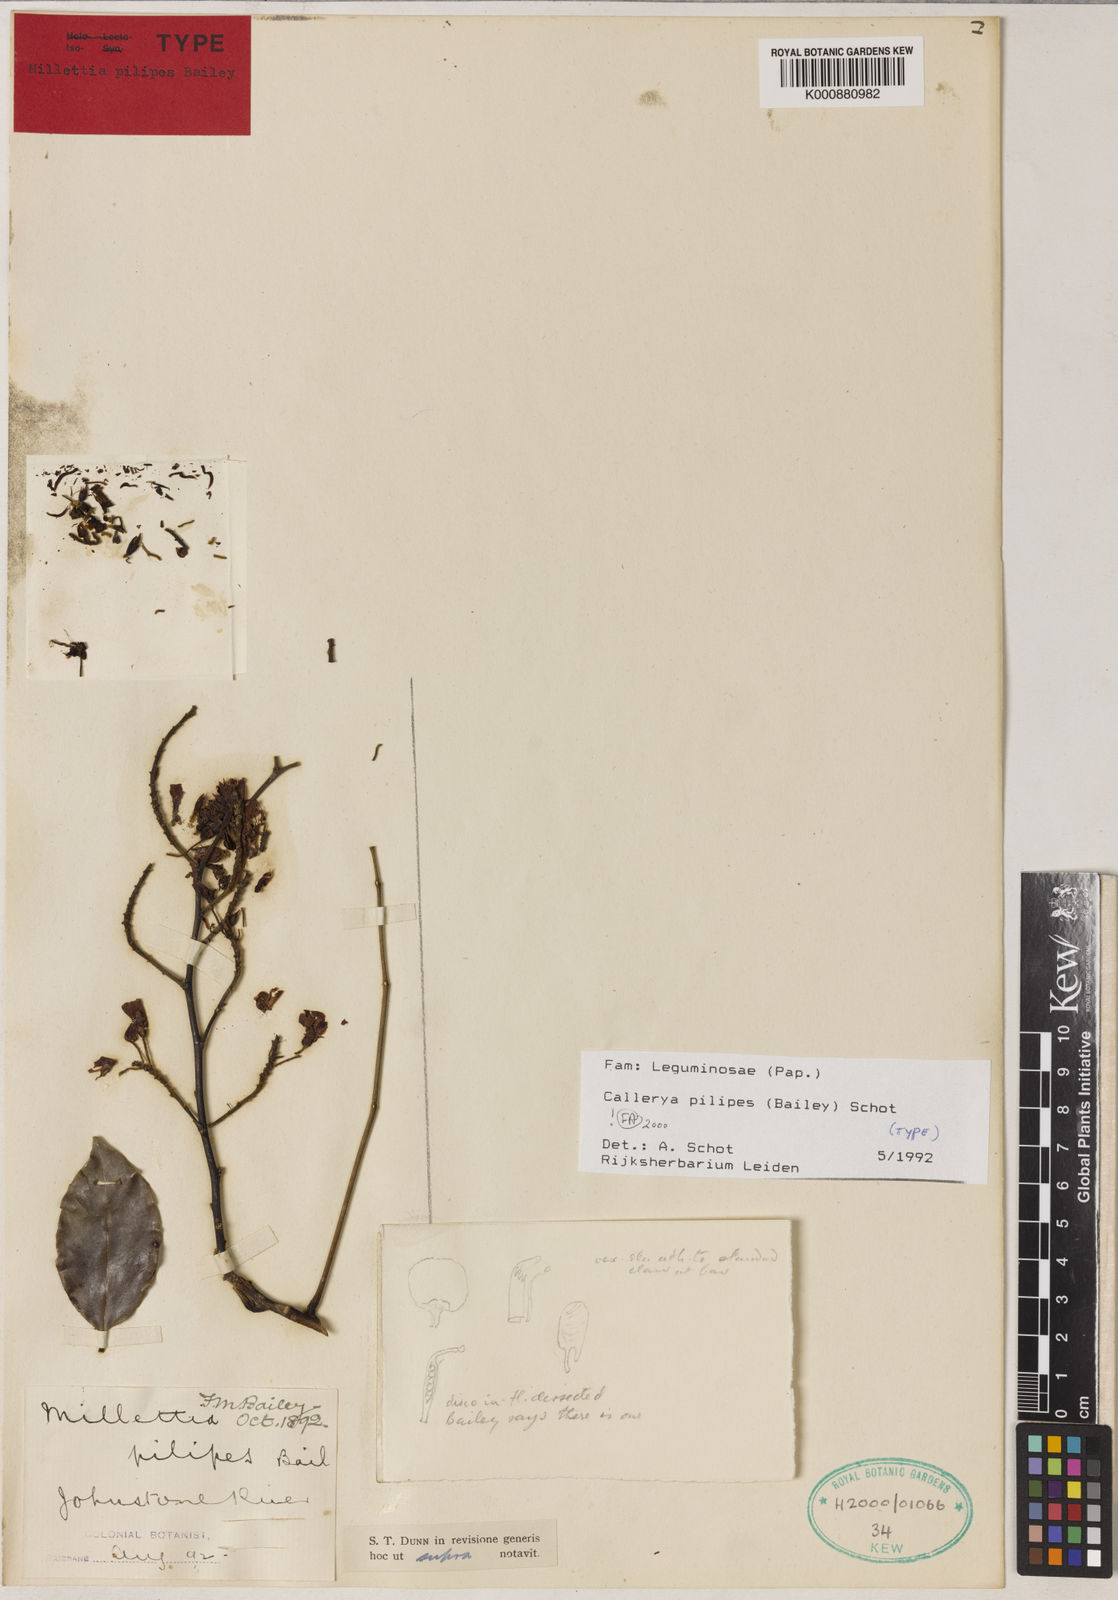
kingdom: Plantae
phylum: Tracheophyta
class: Magnoliopsida
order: Fabales
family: Fabaceae
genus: Austrocallerya
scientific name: Austrocallerya pilipes
